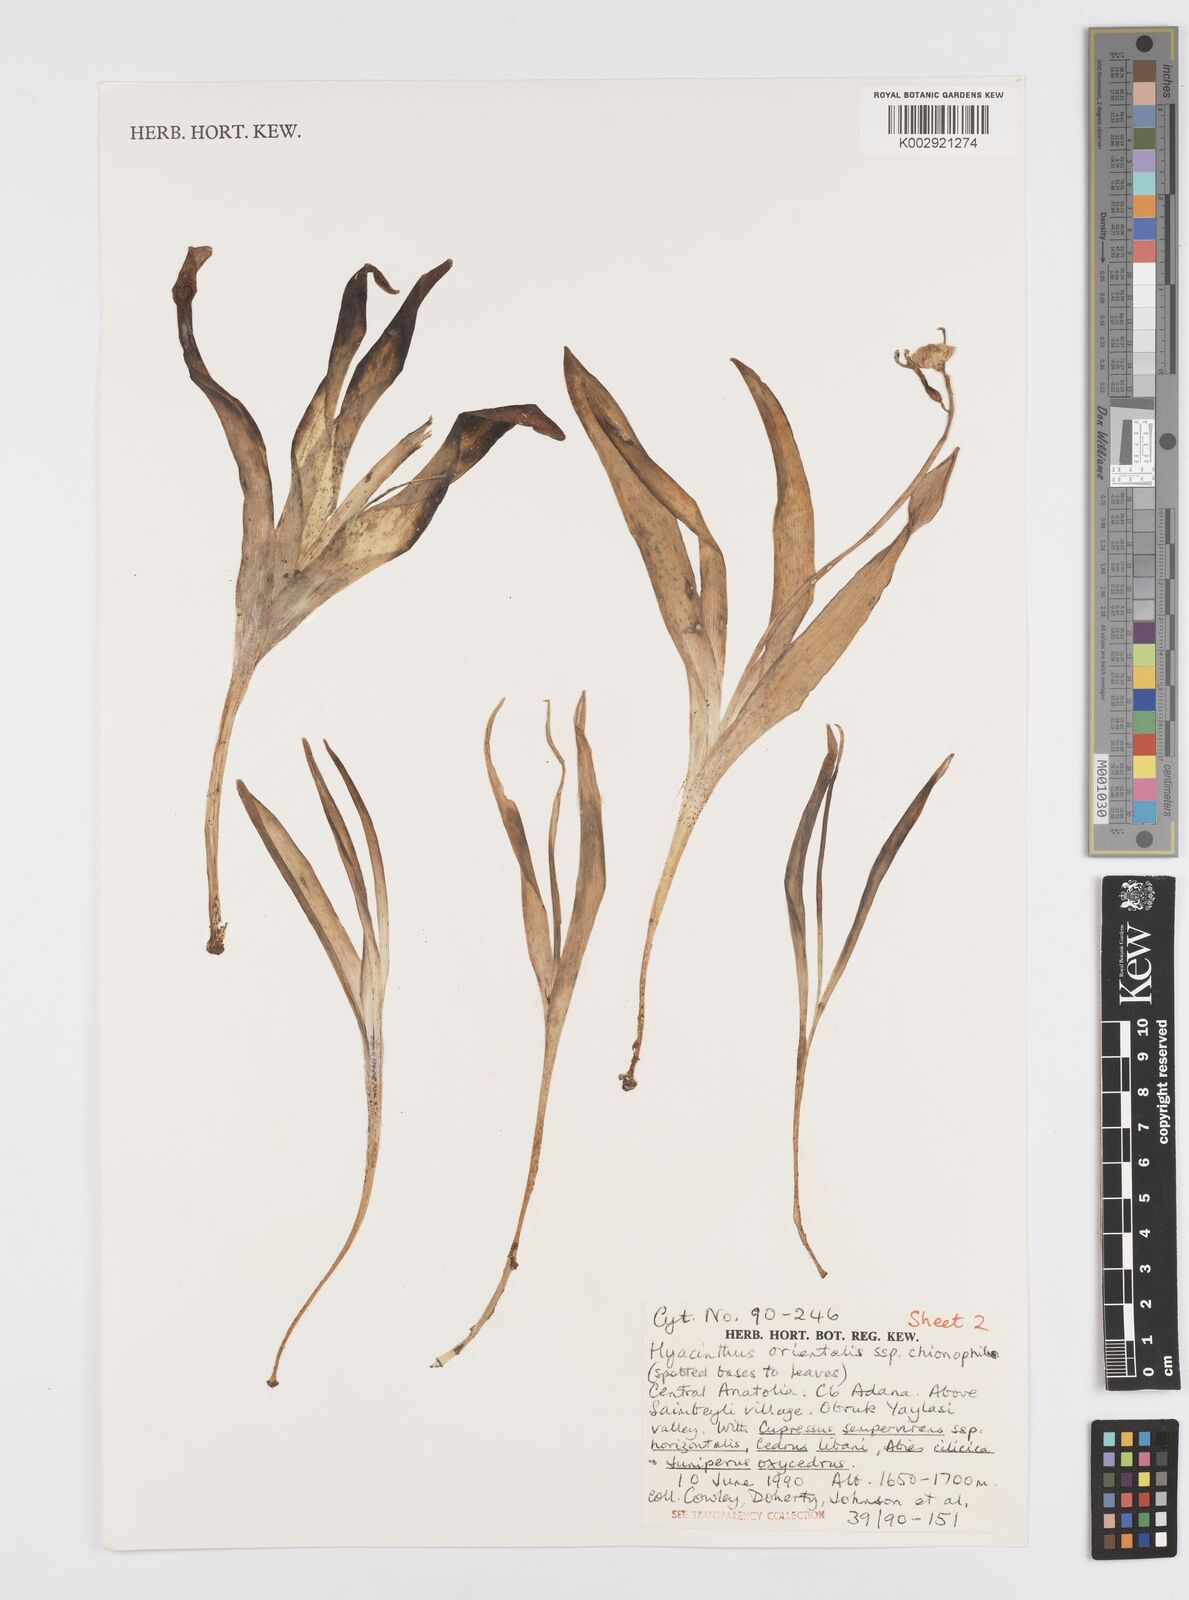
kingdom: Plantae
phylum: Tracheophyta
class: Liliopsida
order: Asparagales
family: Asparagaceae
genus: Hyacinthus
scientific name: Hyacinthus orientalis
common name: Hyacinth
